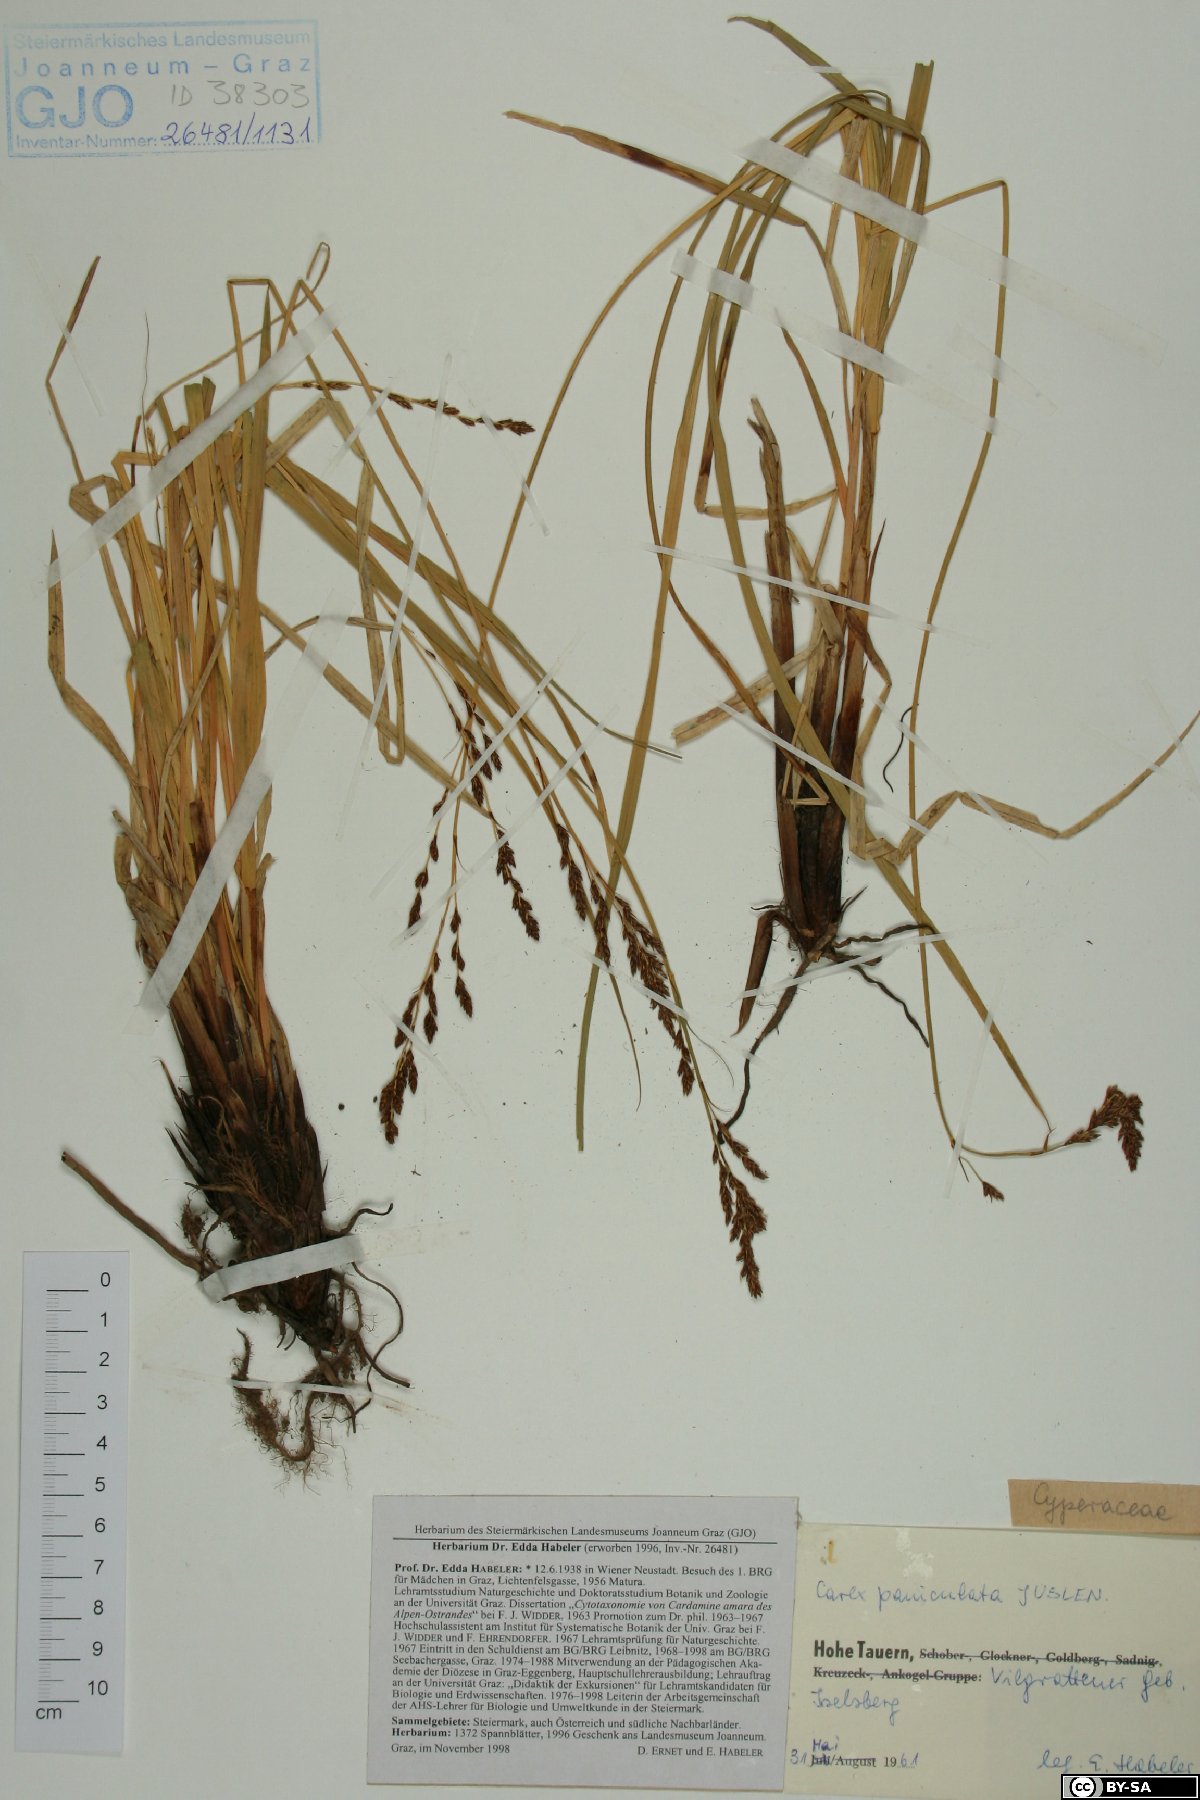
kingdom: Plantae
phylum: Tracheophyta
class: Liliopsida
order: Poales
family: Cyperaceae
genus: Carex
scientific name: Carex paniculata
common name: Greater tussock-sedge
